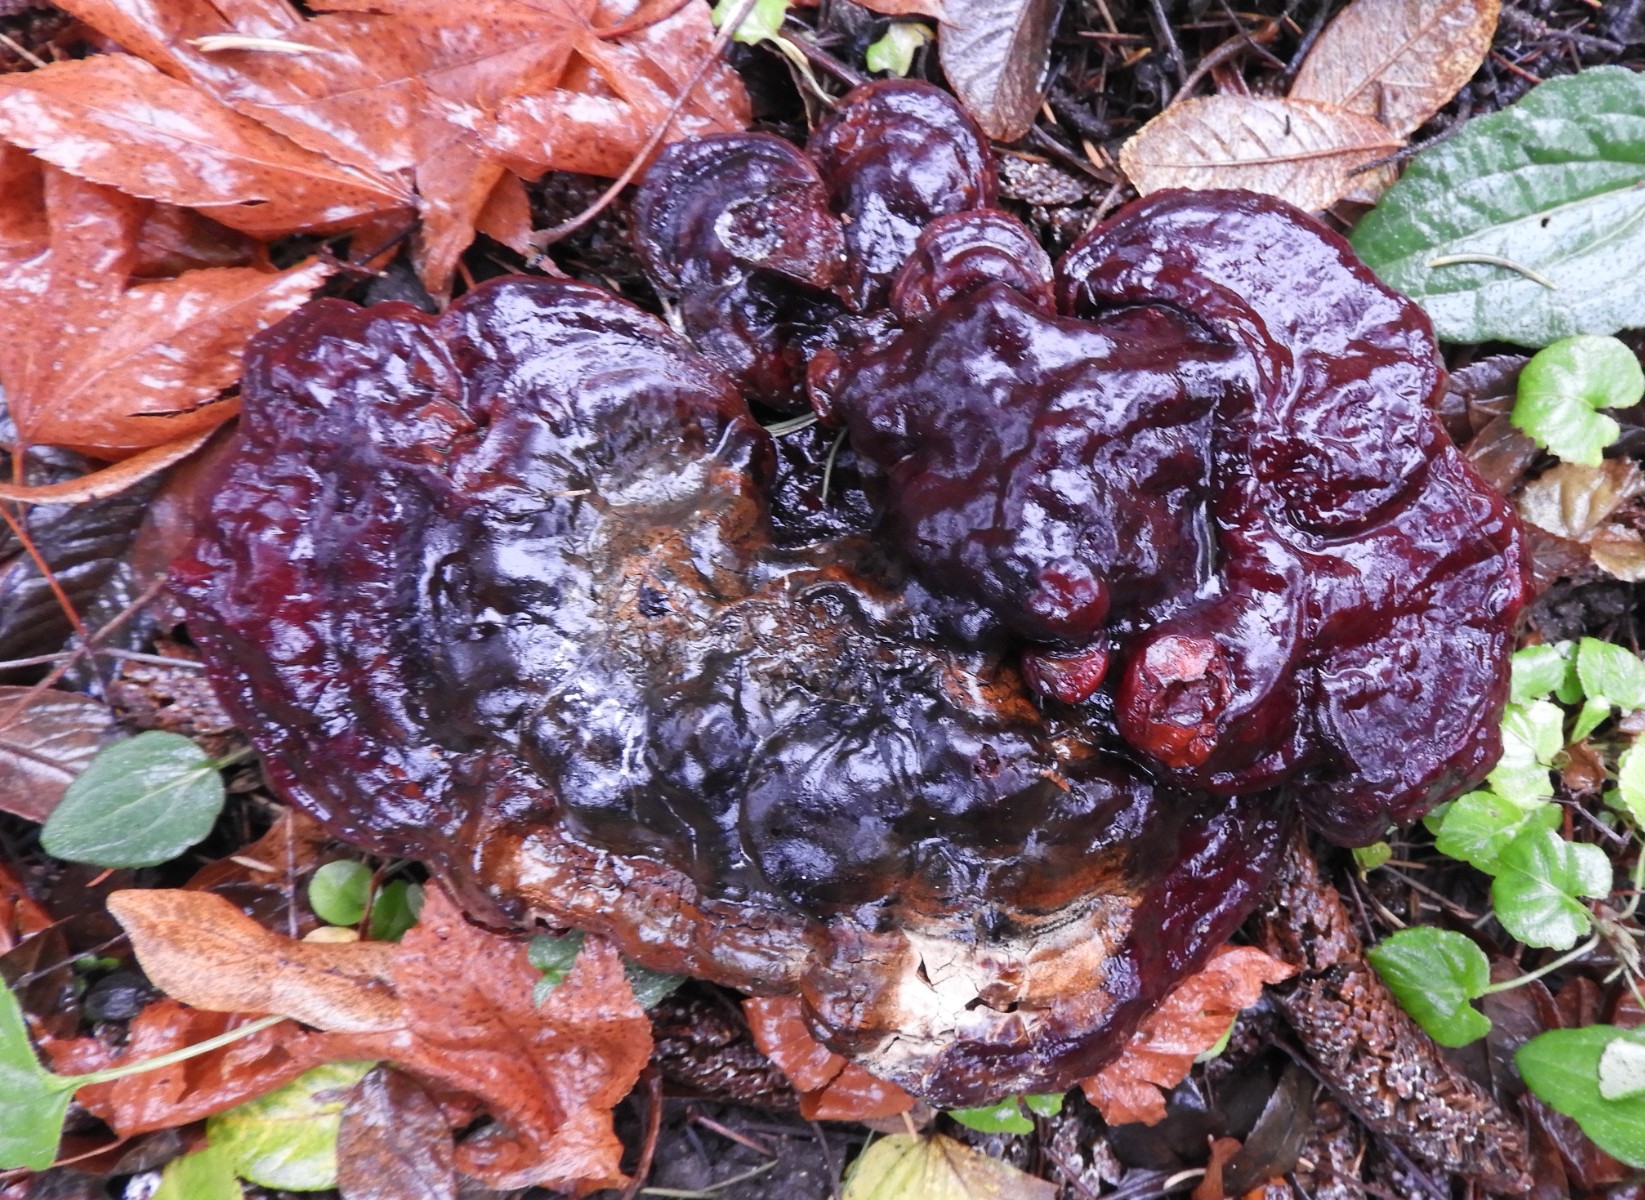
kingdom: Fungi
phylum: Basidiomycota
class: Agaricomycetes
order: Polyporales
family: Polyporaceae
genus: Ganoderma
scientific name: Ganoderma lucidum
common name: skinnende lakporesvamp
